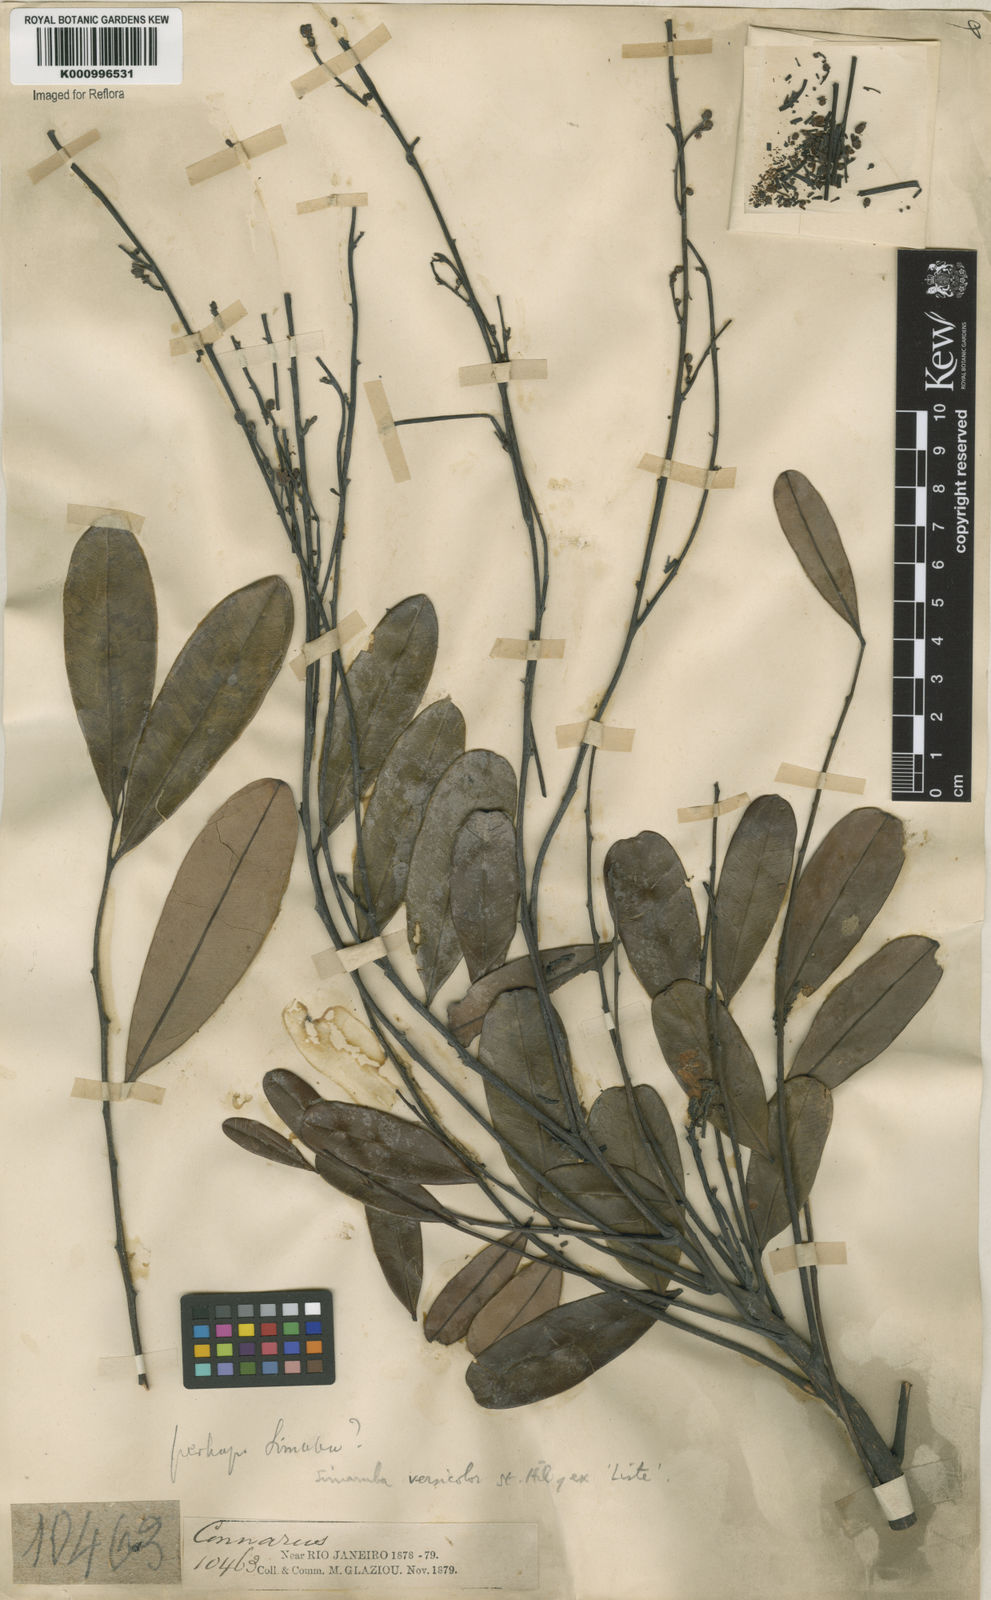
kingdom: Plantae
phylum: Tracheophyta
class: Magnoliopsida
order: Sapindales
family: Simaroubaceae
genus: Simarouba
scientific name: Simarouba versicolor
